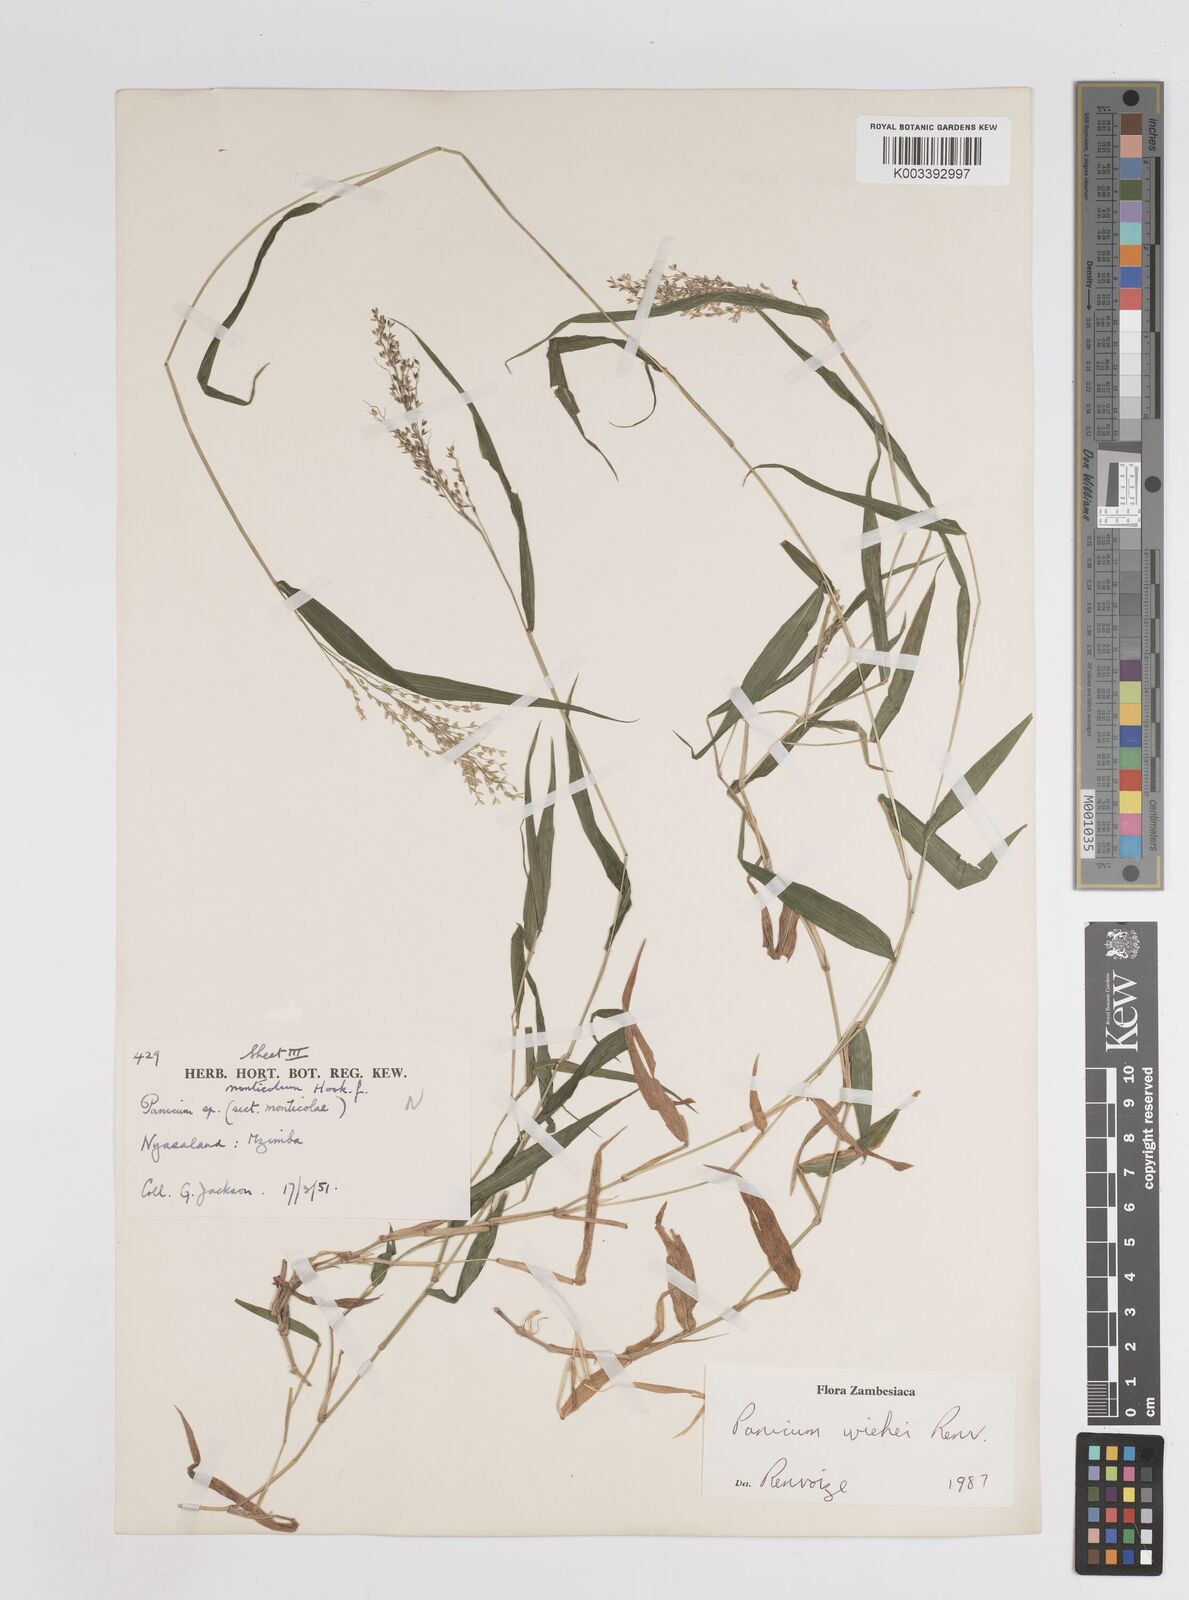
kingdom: Plantae
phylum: Tracheophyta
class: Liliopsida
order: Poales
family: Poaceae
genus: Panicum
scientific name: Panicum wiehei
